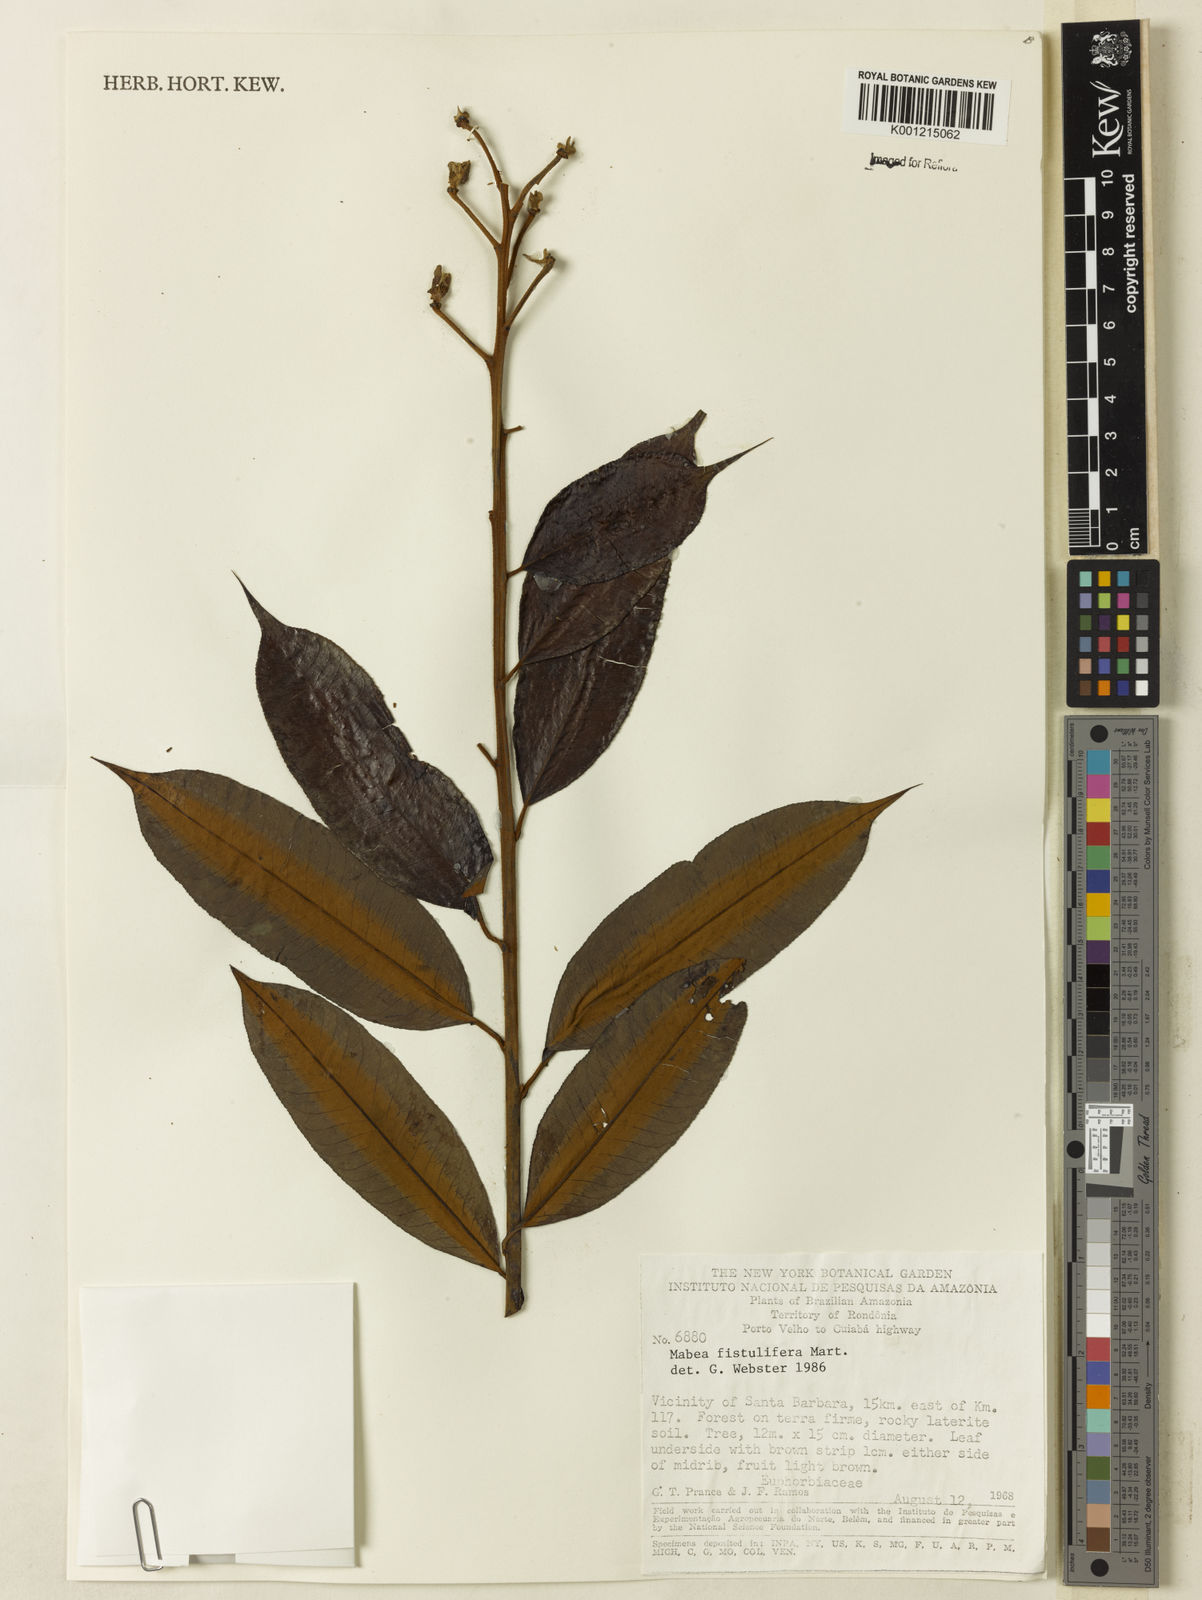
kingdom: Plantae
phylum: Tracheophyta
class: Magnoliopsida
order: Malpighiales
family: Euphorbiaceae
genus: Mabea
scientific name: Mabea fistulifera
